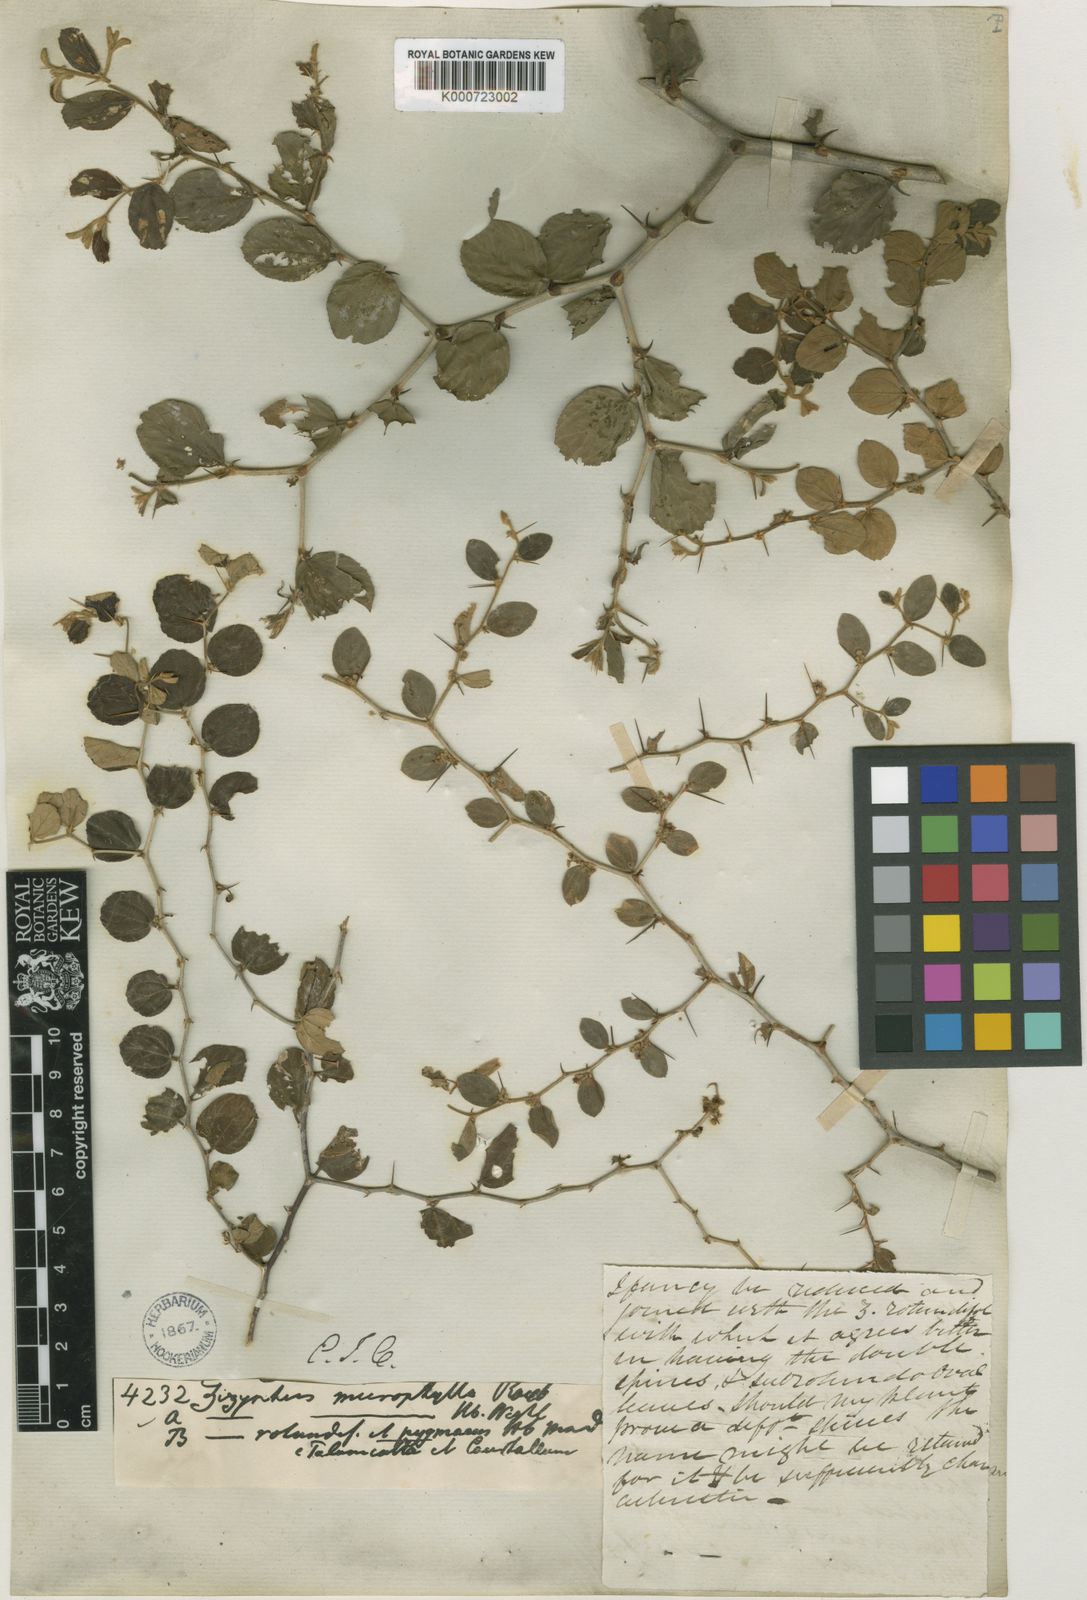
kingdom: Plantae
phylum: Tracheophyta
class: Magnoliopsida
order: Rosales
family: Rhamnaceae
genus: Ziziphus
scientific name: Ziziphus nummularia
